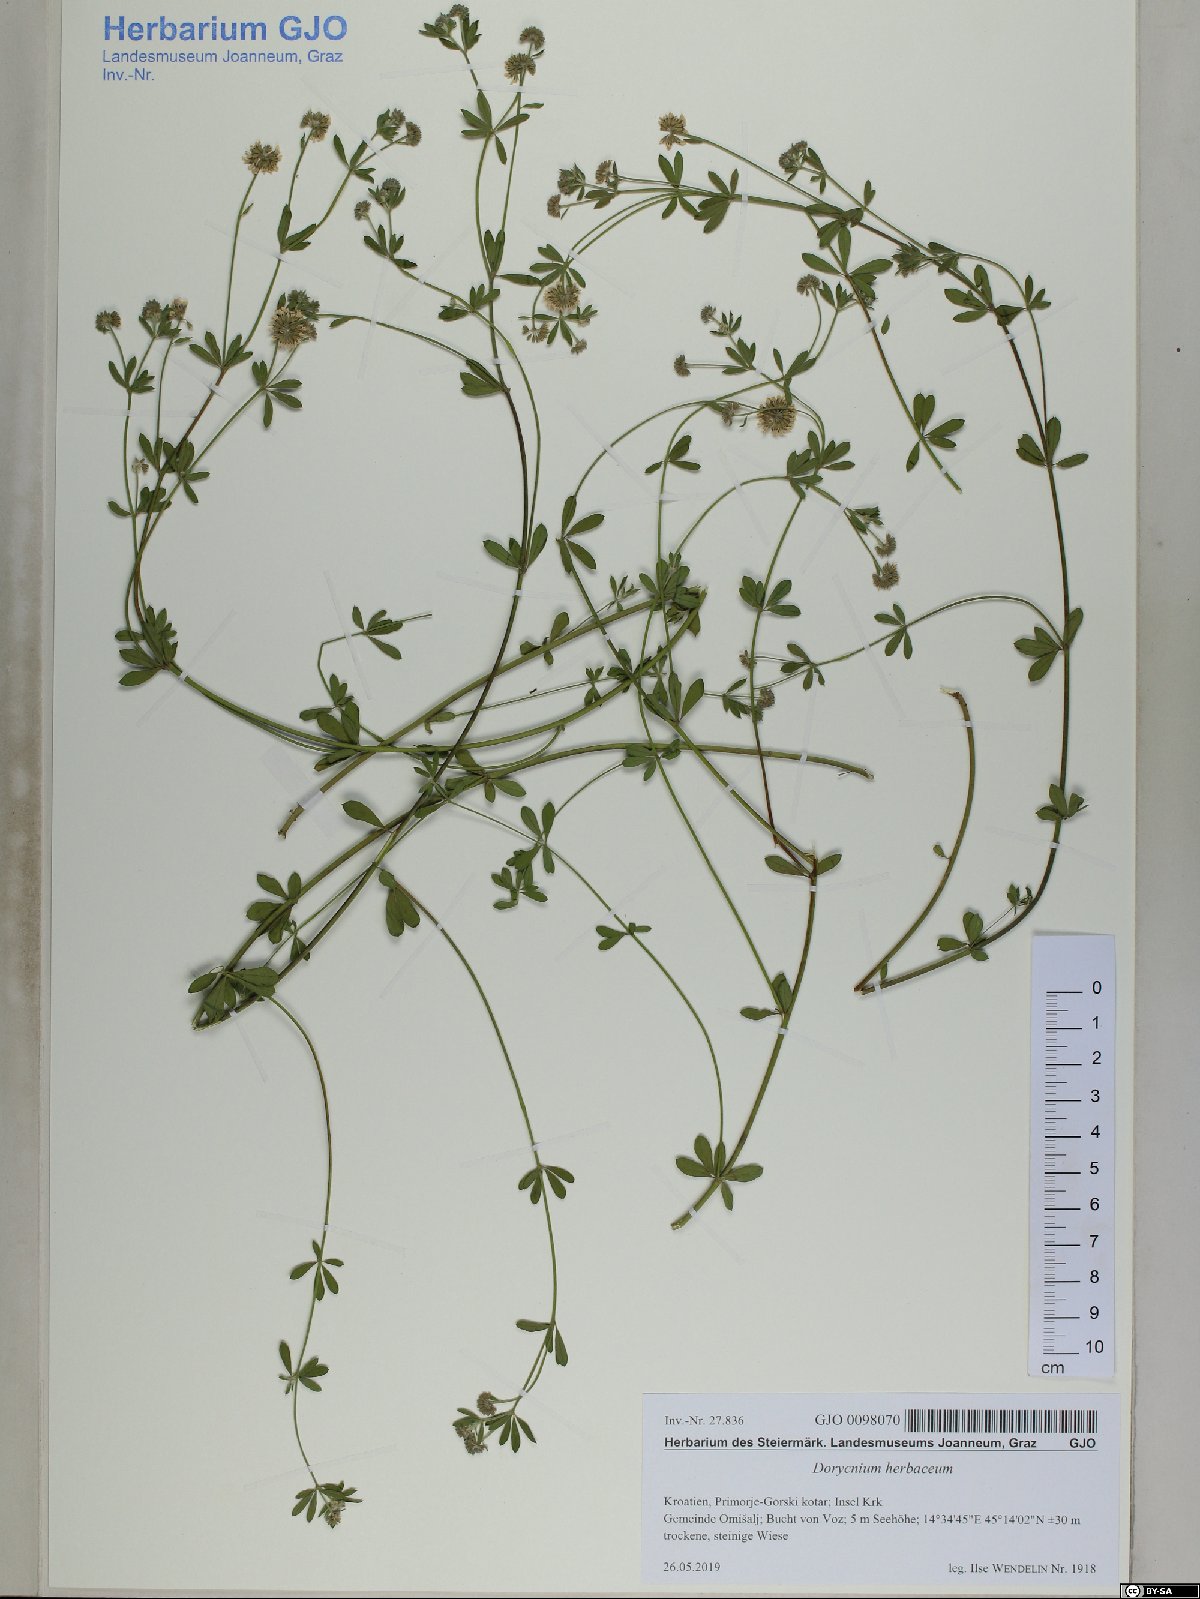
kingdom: Plantae
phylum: Tracheophyta
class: Magnoliopsida
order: Fabales
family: Fabaceae
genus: Lotus
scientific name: Lotus herbaceus
